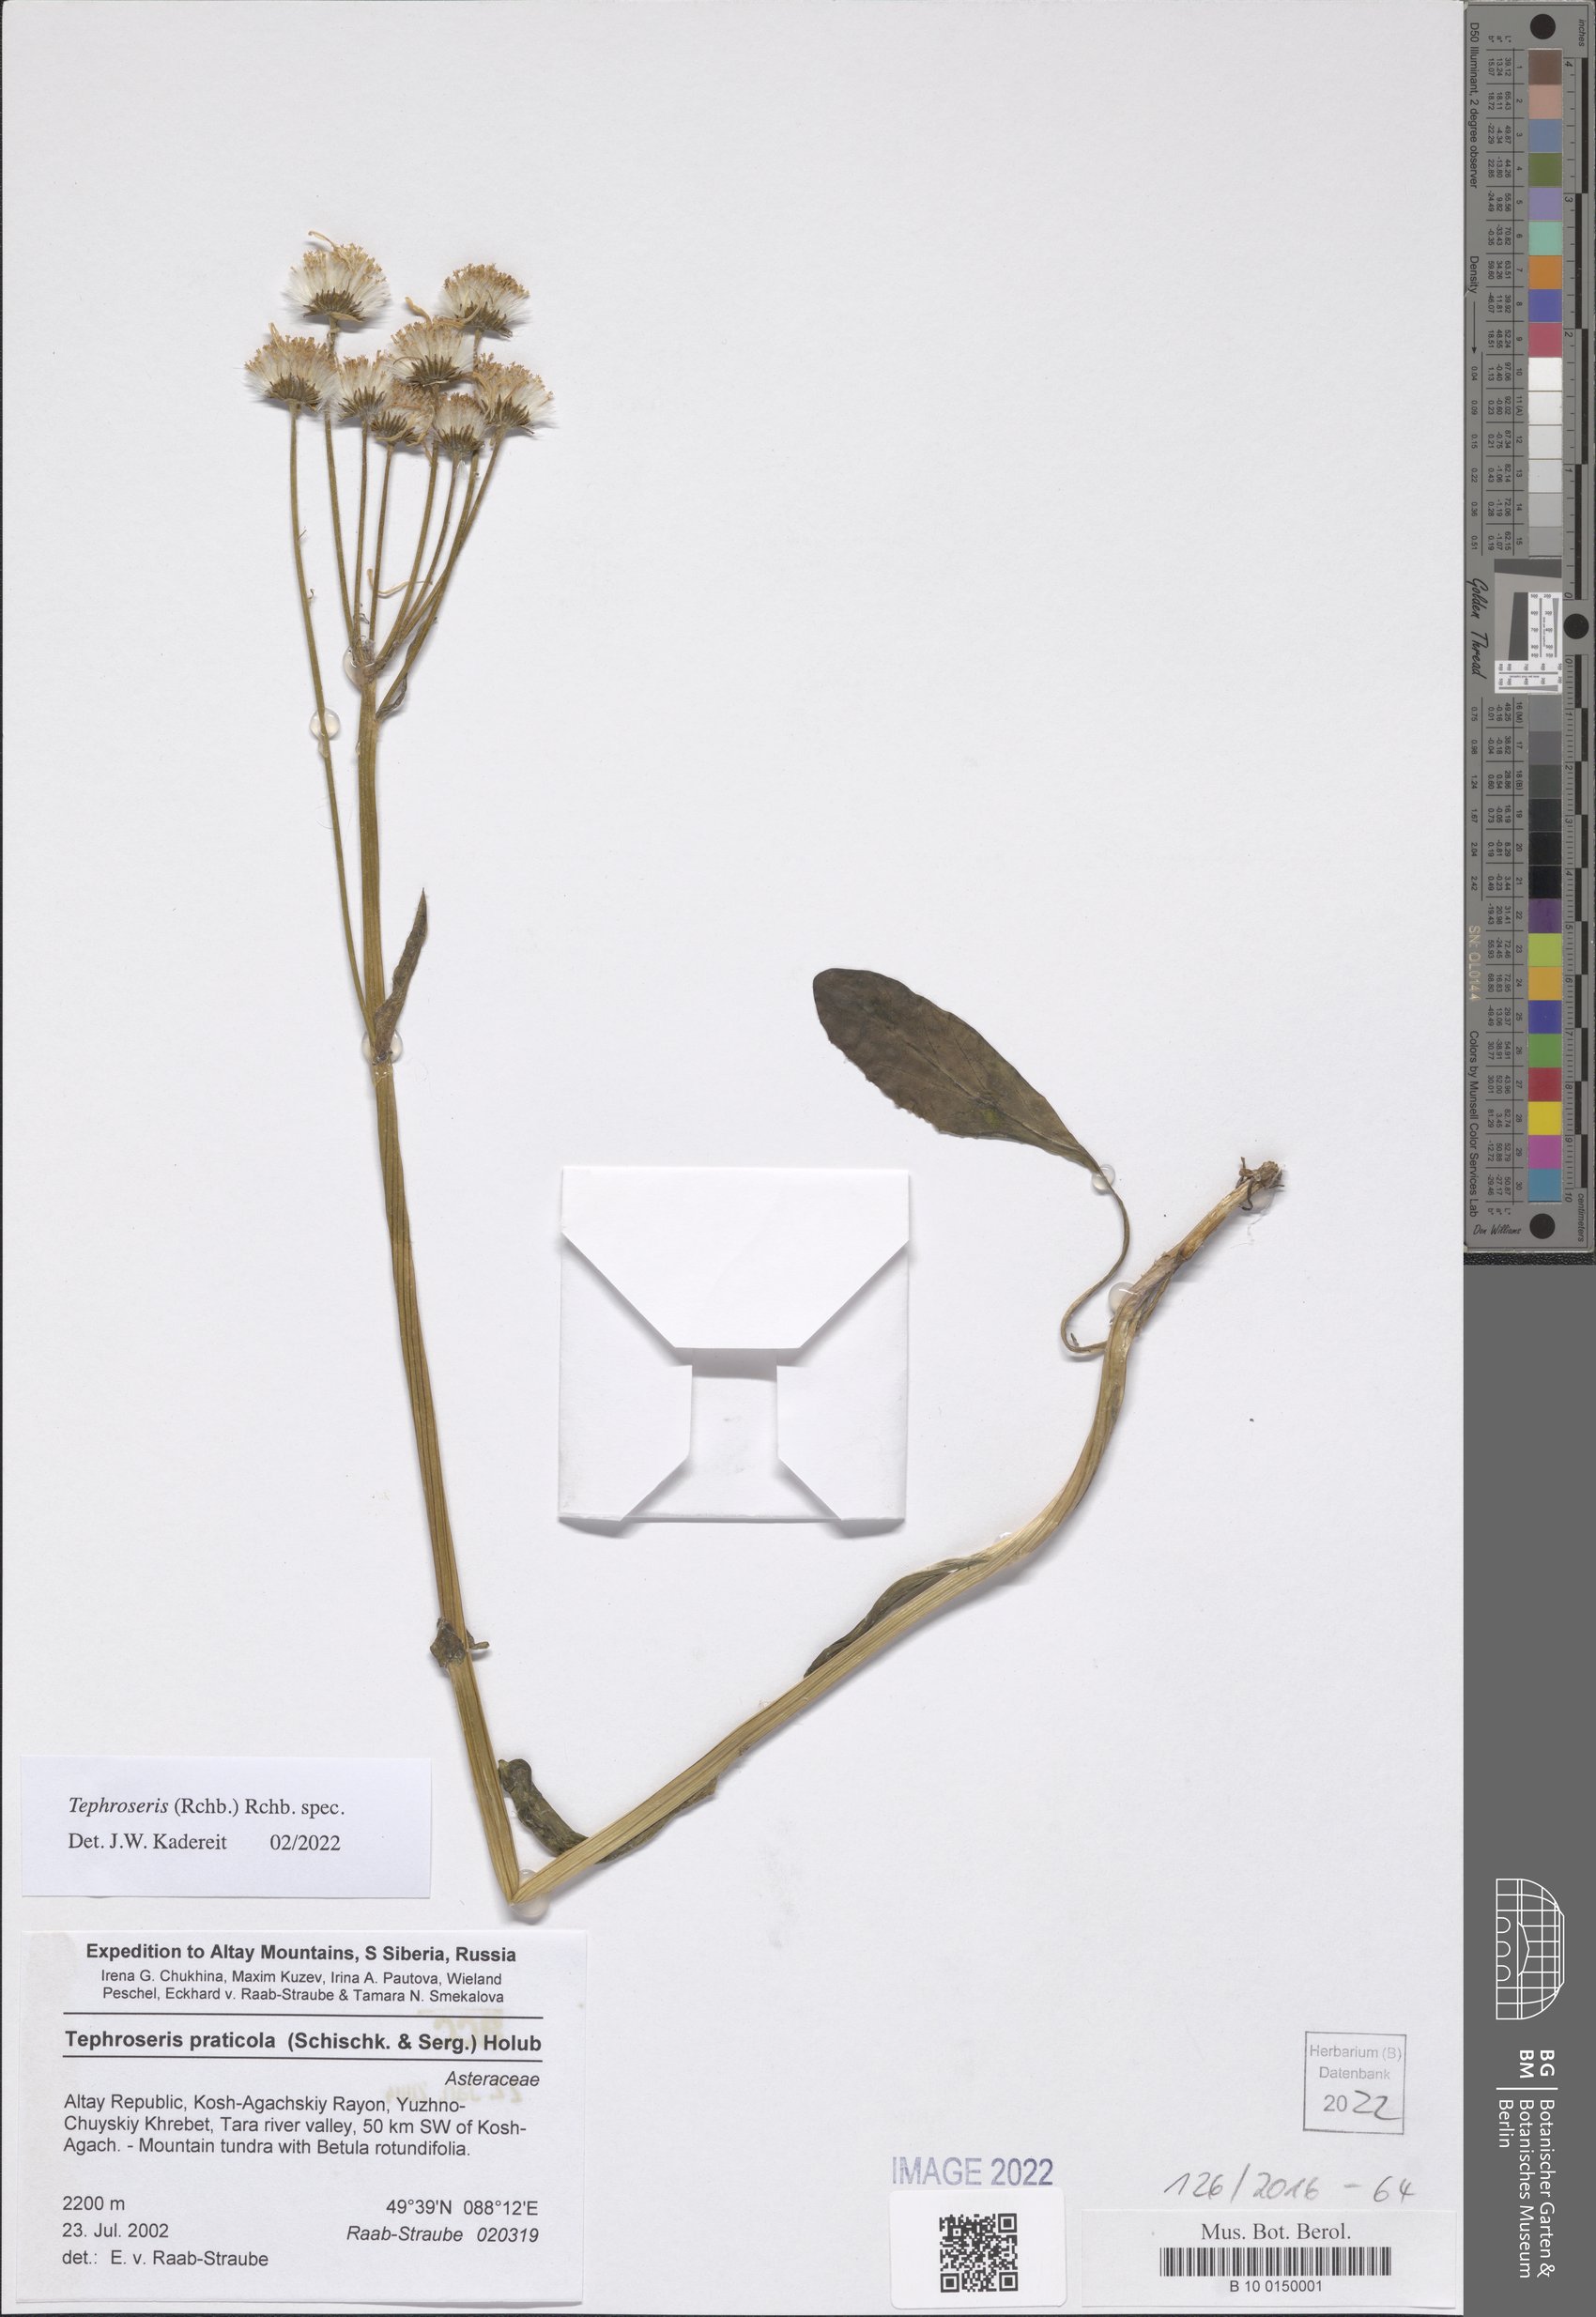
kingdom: Plantae
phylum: Tracheophyta
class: Magnoliopsida
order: Asterales
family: Asteraceae
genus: Tephroseris
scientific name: Tephroseris
